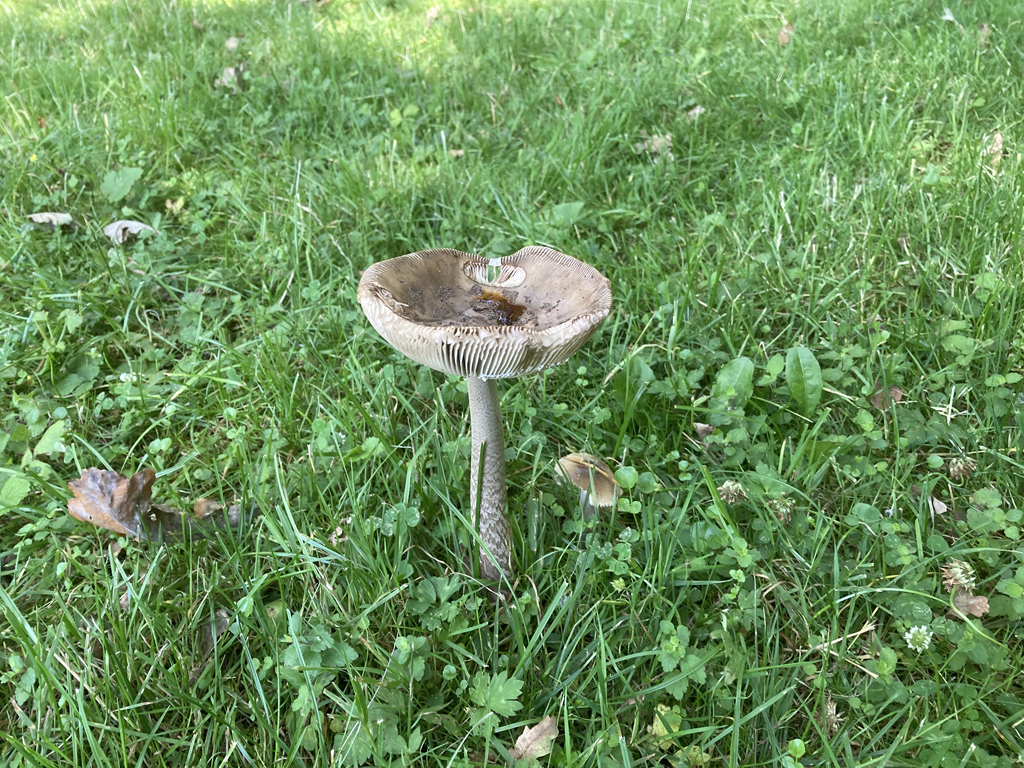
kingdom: Fungi
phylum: Basidiomycota
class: Agaricomycetes
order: Agaricales
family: Amanitaceae
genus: Amanita
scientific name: Amanita ceciliae
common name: stor kam-fluesvamp
